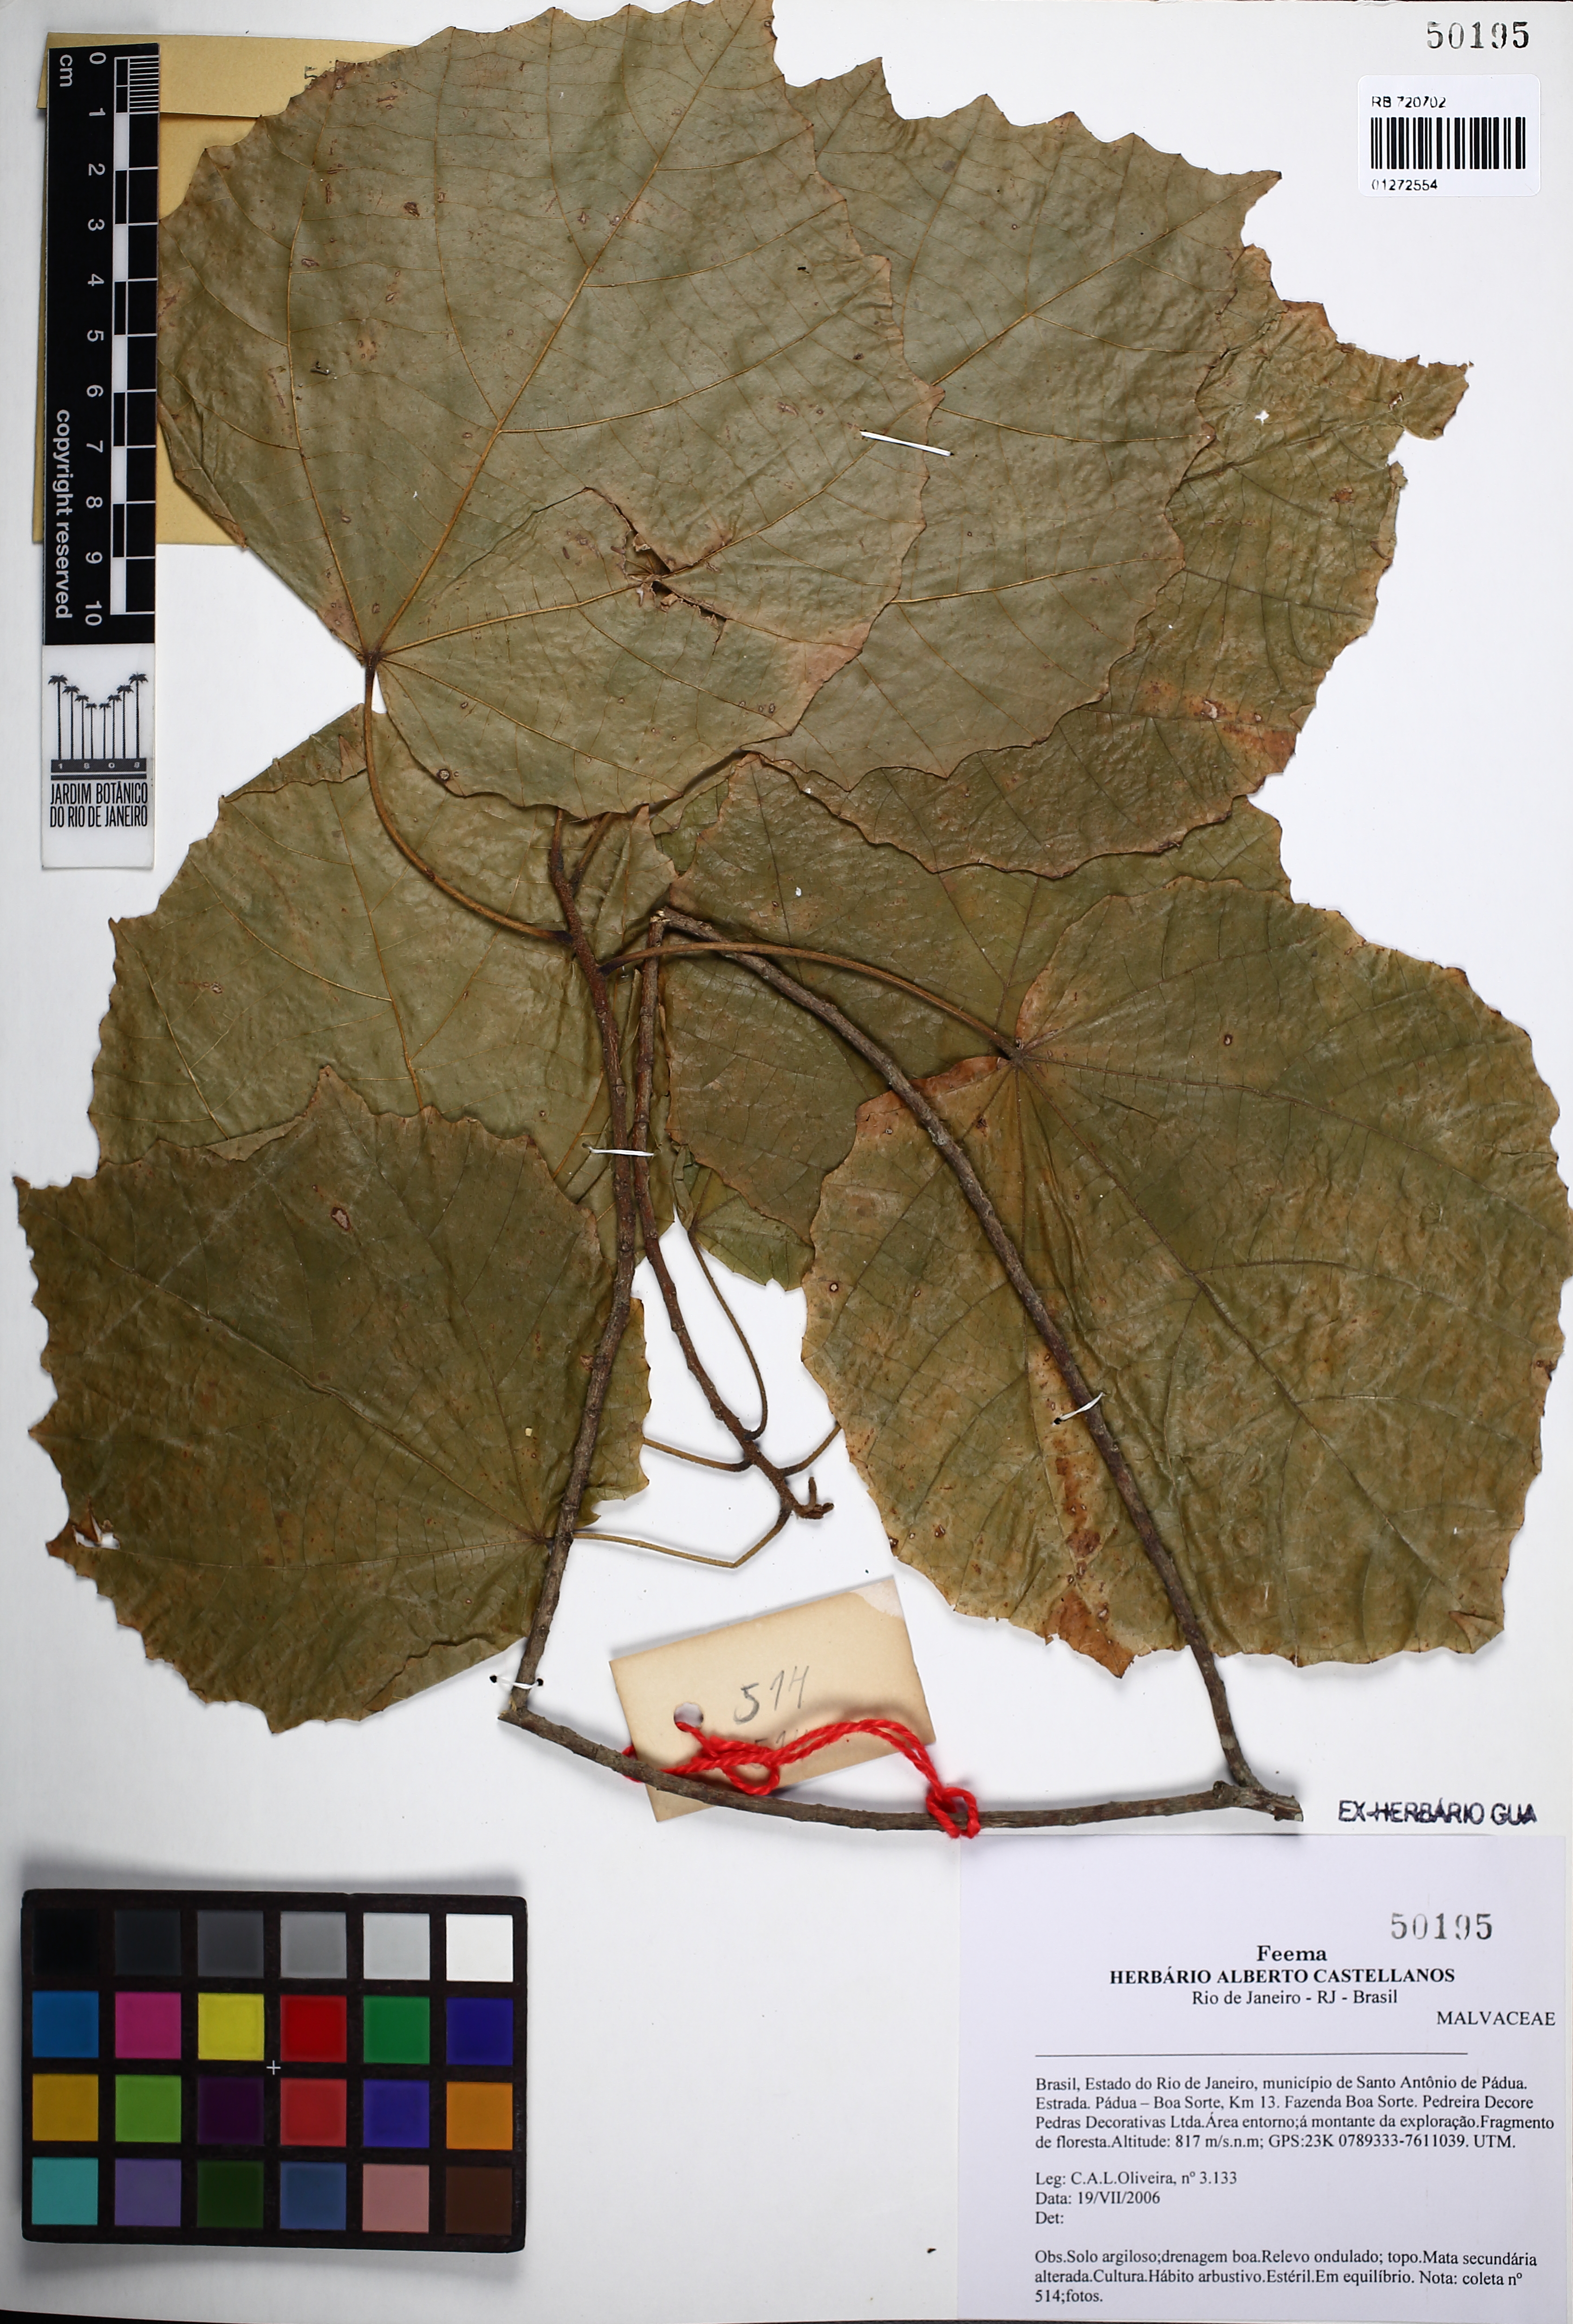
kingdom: Plantae
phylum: Tracheophyta
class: Magnoliopsida
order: Malvales
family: Malvaceae
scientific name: Malvaceae
